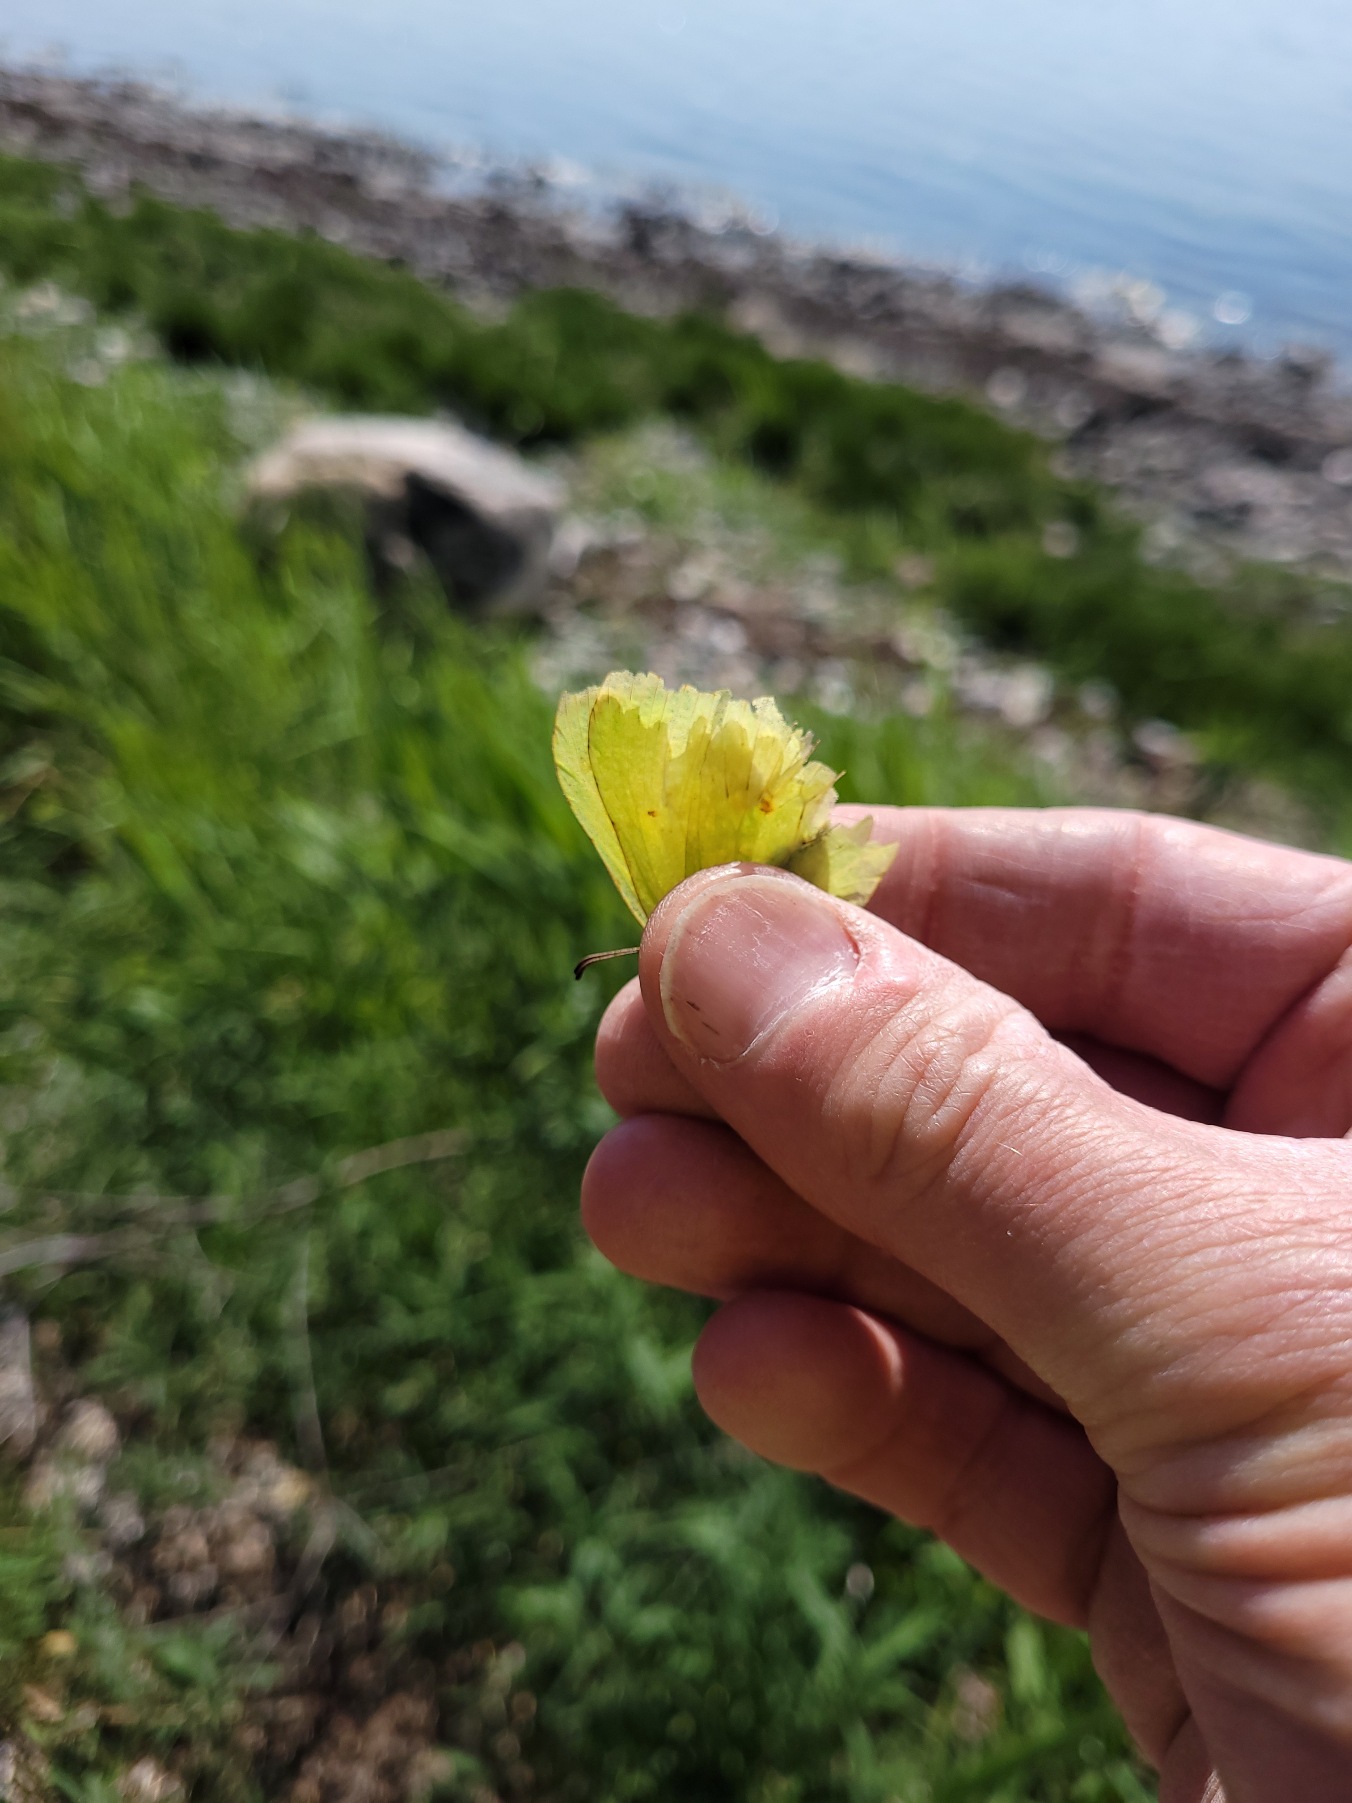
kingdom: Animalia
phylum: Arthropoda
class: Insecta
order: Lepidoptera
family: Pieridae
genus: Gonepteryx
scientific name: Gonepteryx rhamni
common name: Citronsommerfugl
